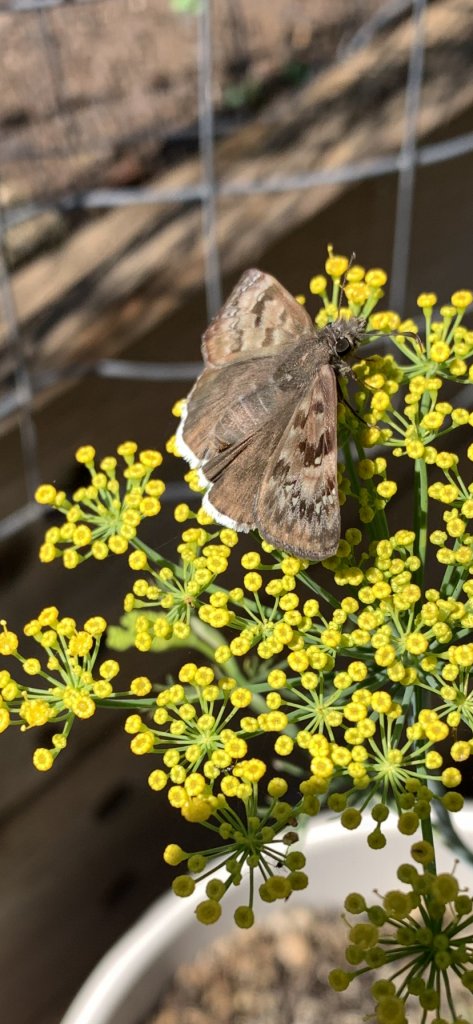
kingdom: Animalia
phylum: Arthropoda
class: Insecta
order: Lepidoptera
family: Hesperiidae
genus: Erynnis
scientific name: Erynnis tristis
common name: Mournful Duskywing
